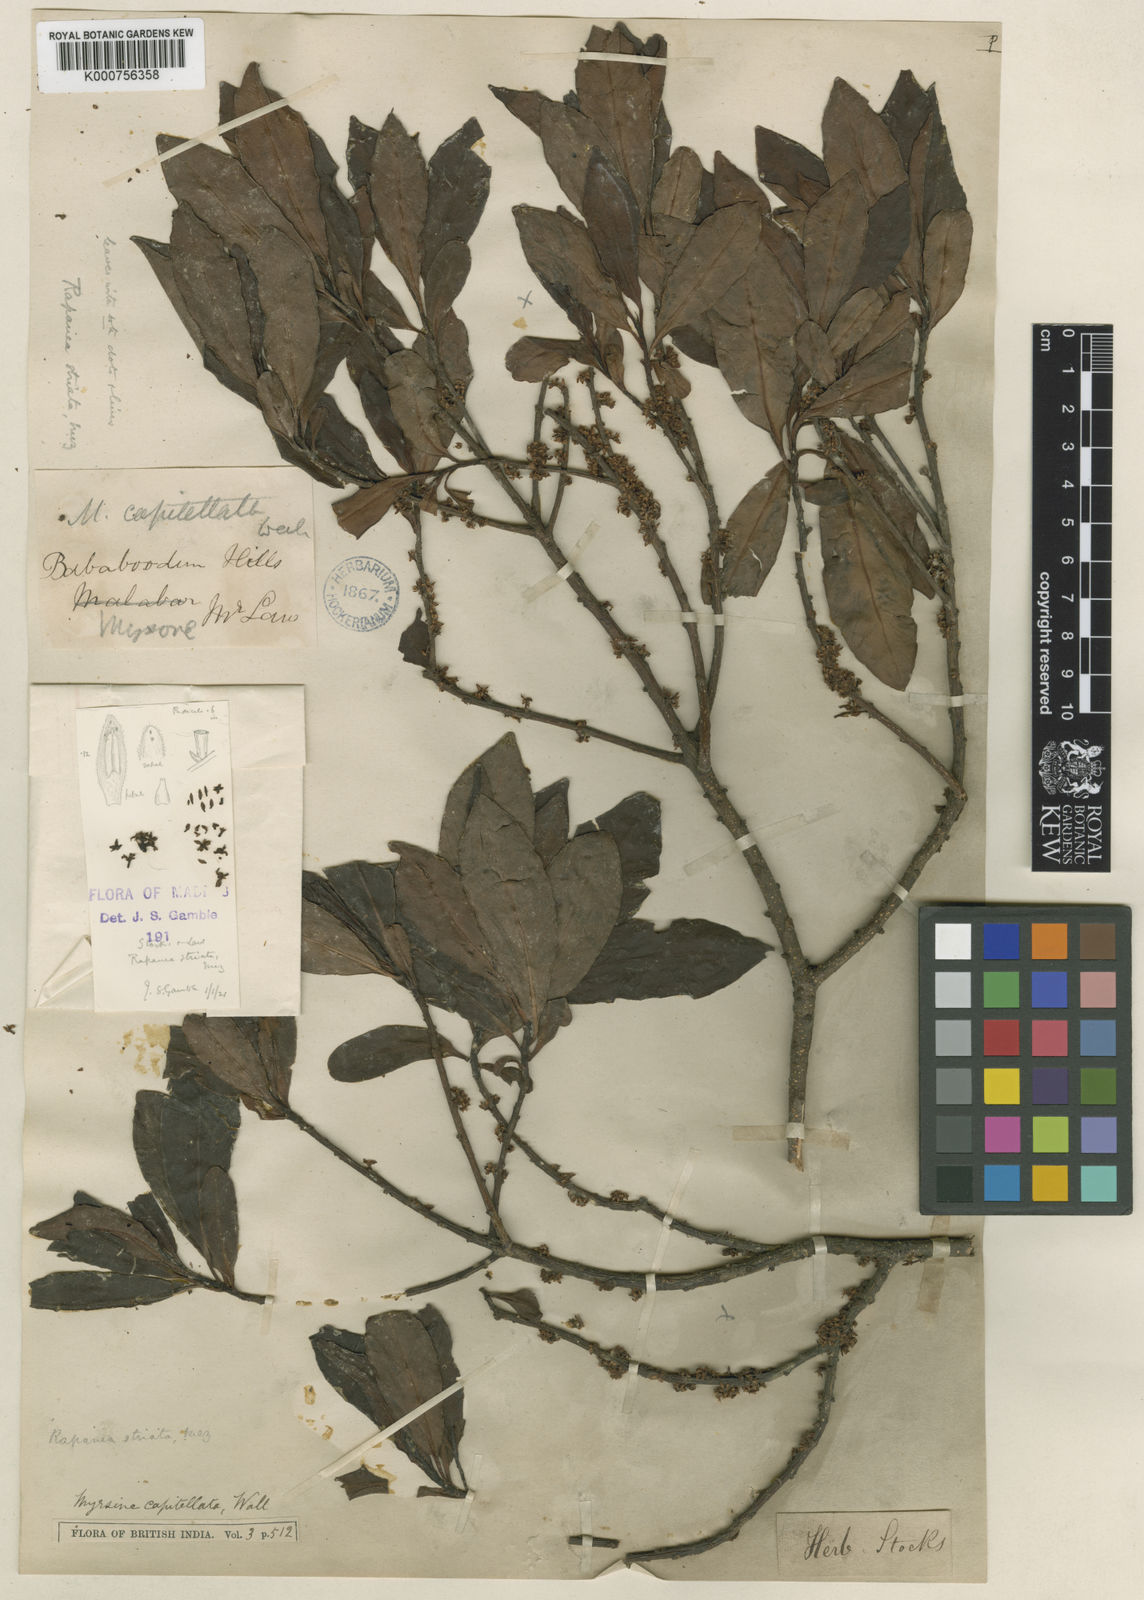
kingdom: Plantae
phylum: Tracheophyta
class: Magnoliopsida
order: Ericales
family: Primulaceae
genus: Myrsine
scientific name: Myrsine striata
